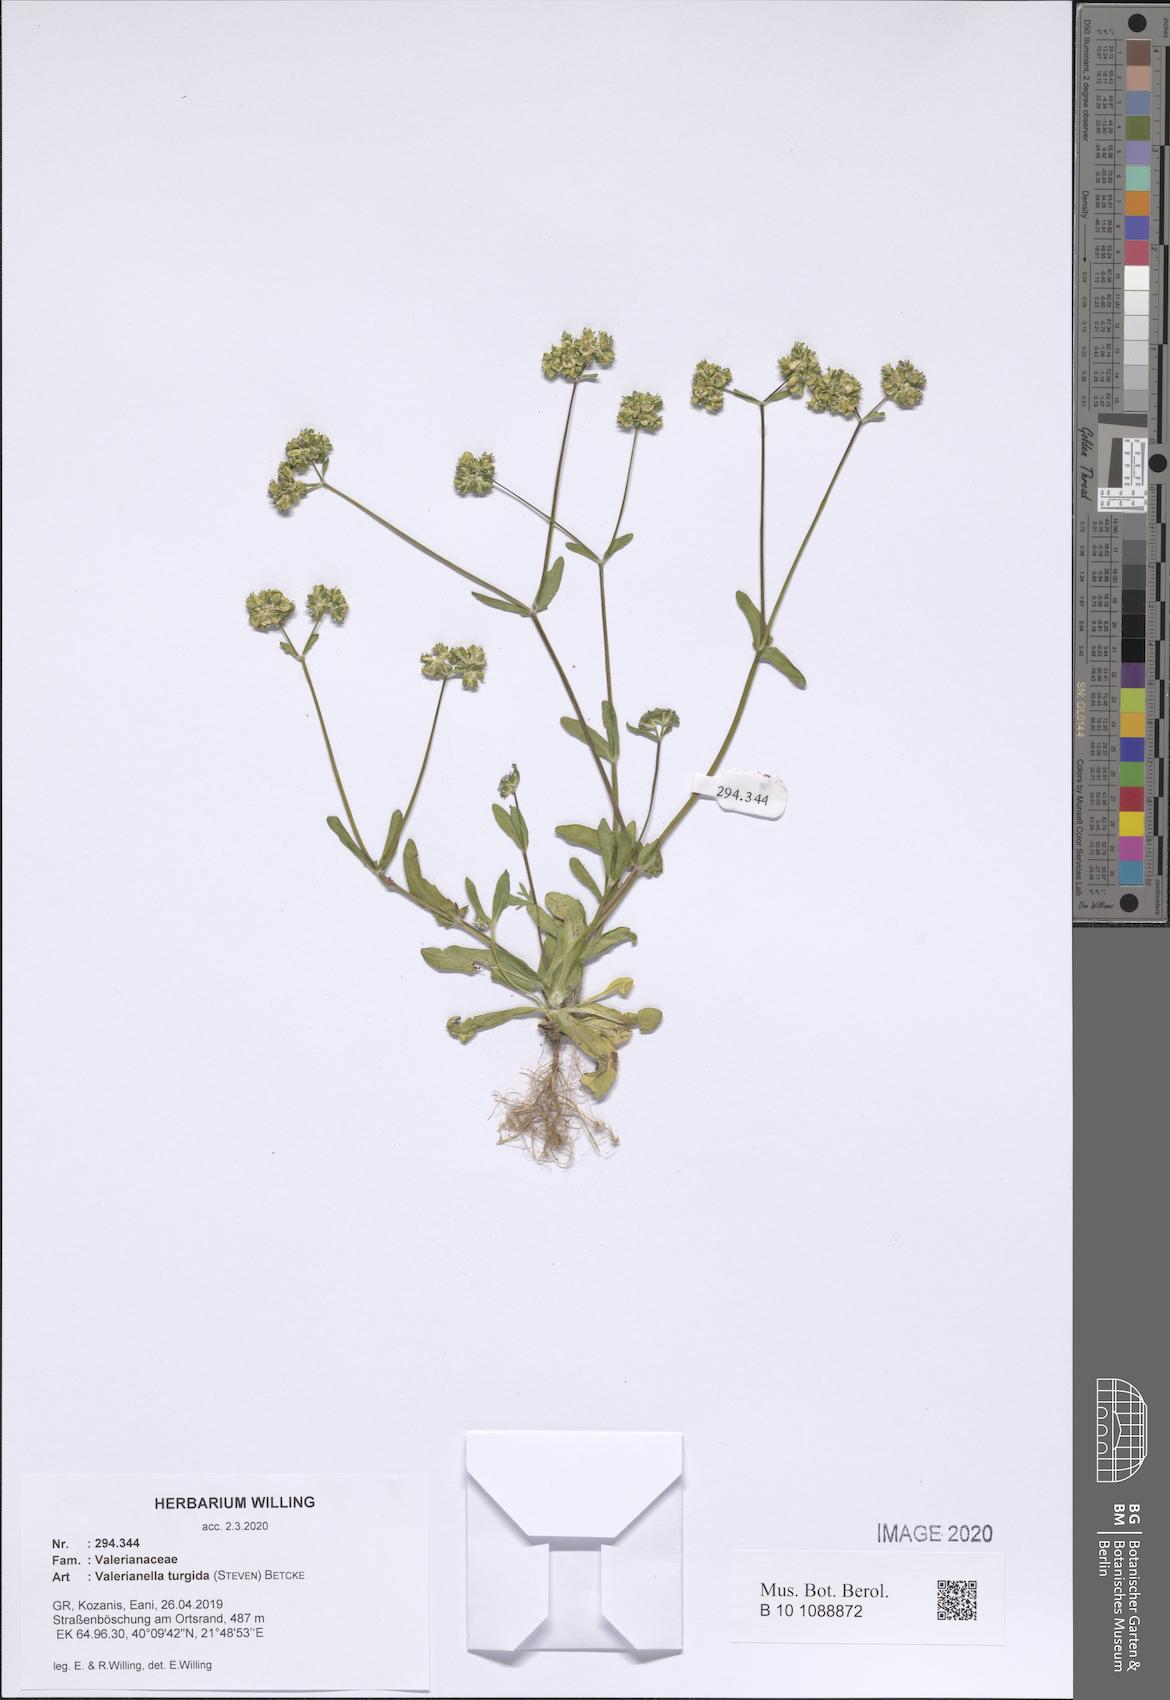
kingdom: Plantae
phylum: Tracheophyta
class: Magnoliopsida
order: Dipsacales
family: Caprifoliaceae
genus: Valerianella
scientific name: Valerianella turgida
